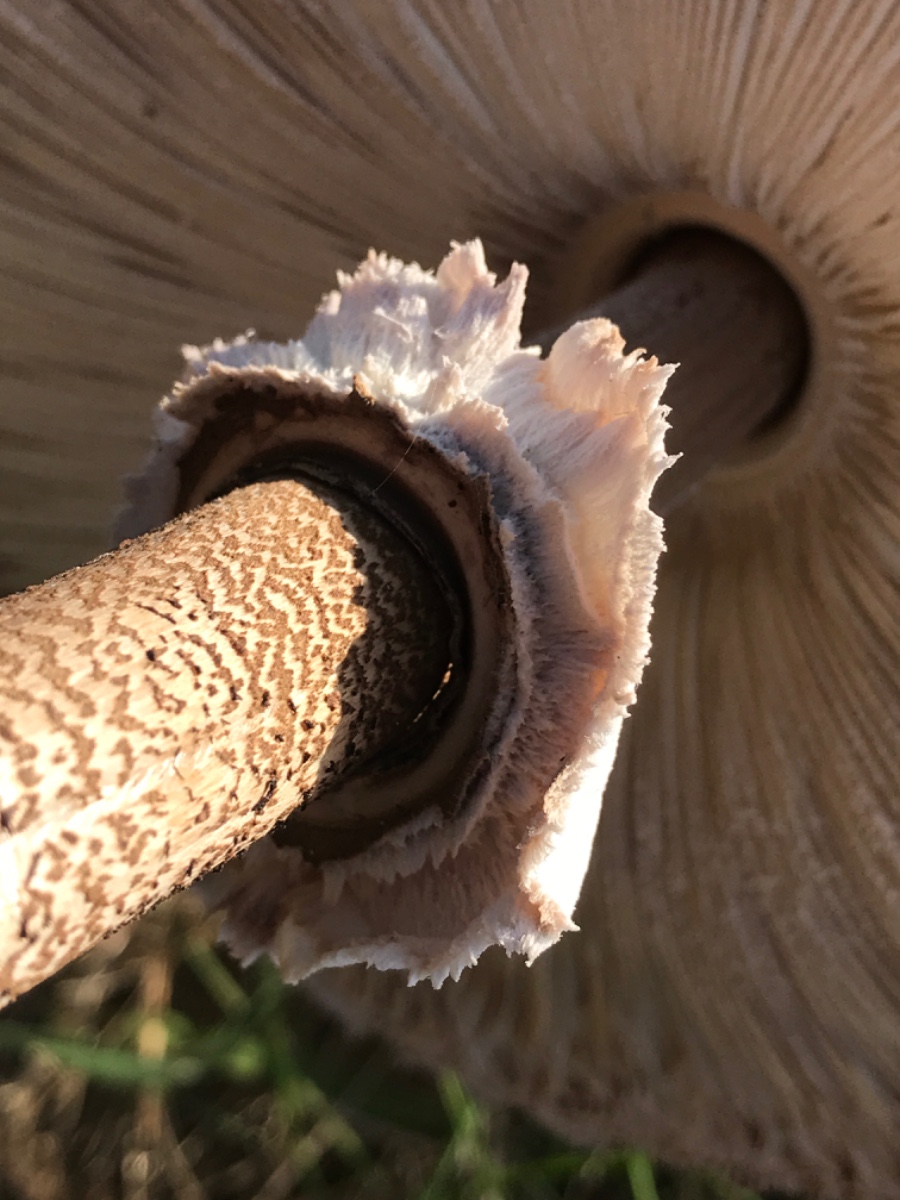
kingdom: Fungi
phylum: Basidiomycota
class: Agaricomycetes
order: Agaricales
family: Agaricaceae
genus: Macrolepiota
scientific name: Macrolepiota procera
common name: stor kæmpeparasolhat
